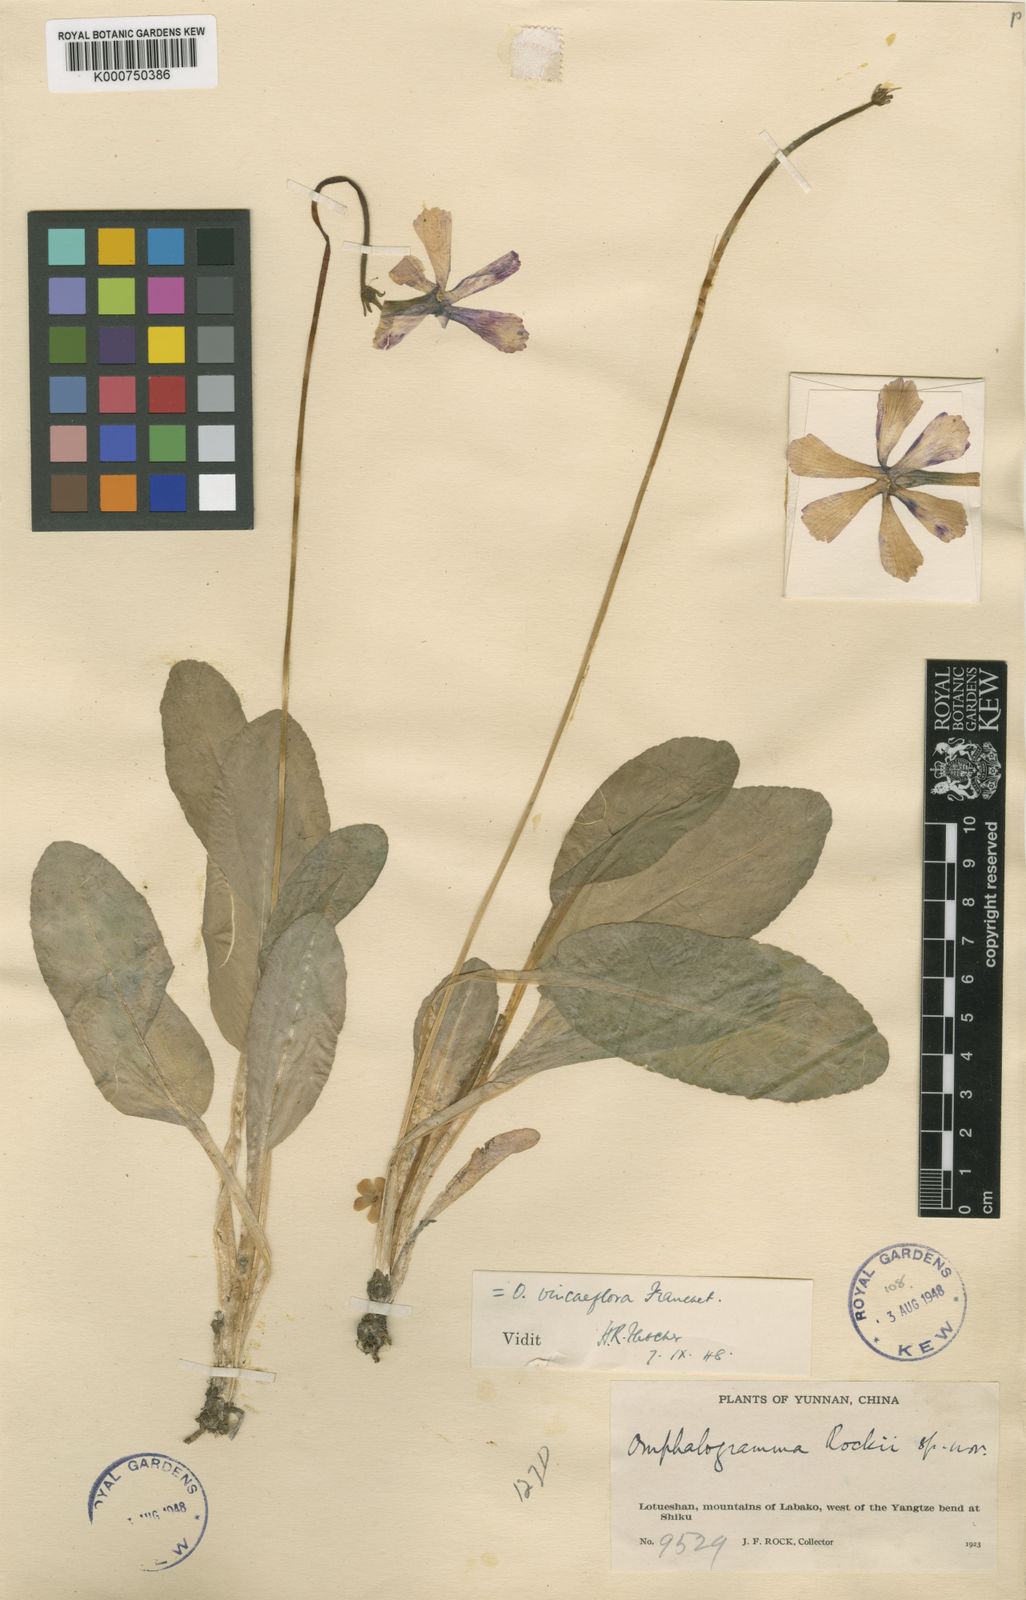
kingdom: Plantae
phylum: Tracheophyta
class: Magnoliopsida
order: Ericales
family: Primulaceae
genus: Omphalogramma
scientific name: Omphalogramma vinciflorum
